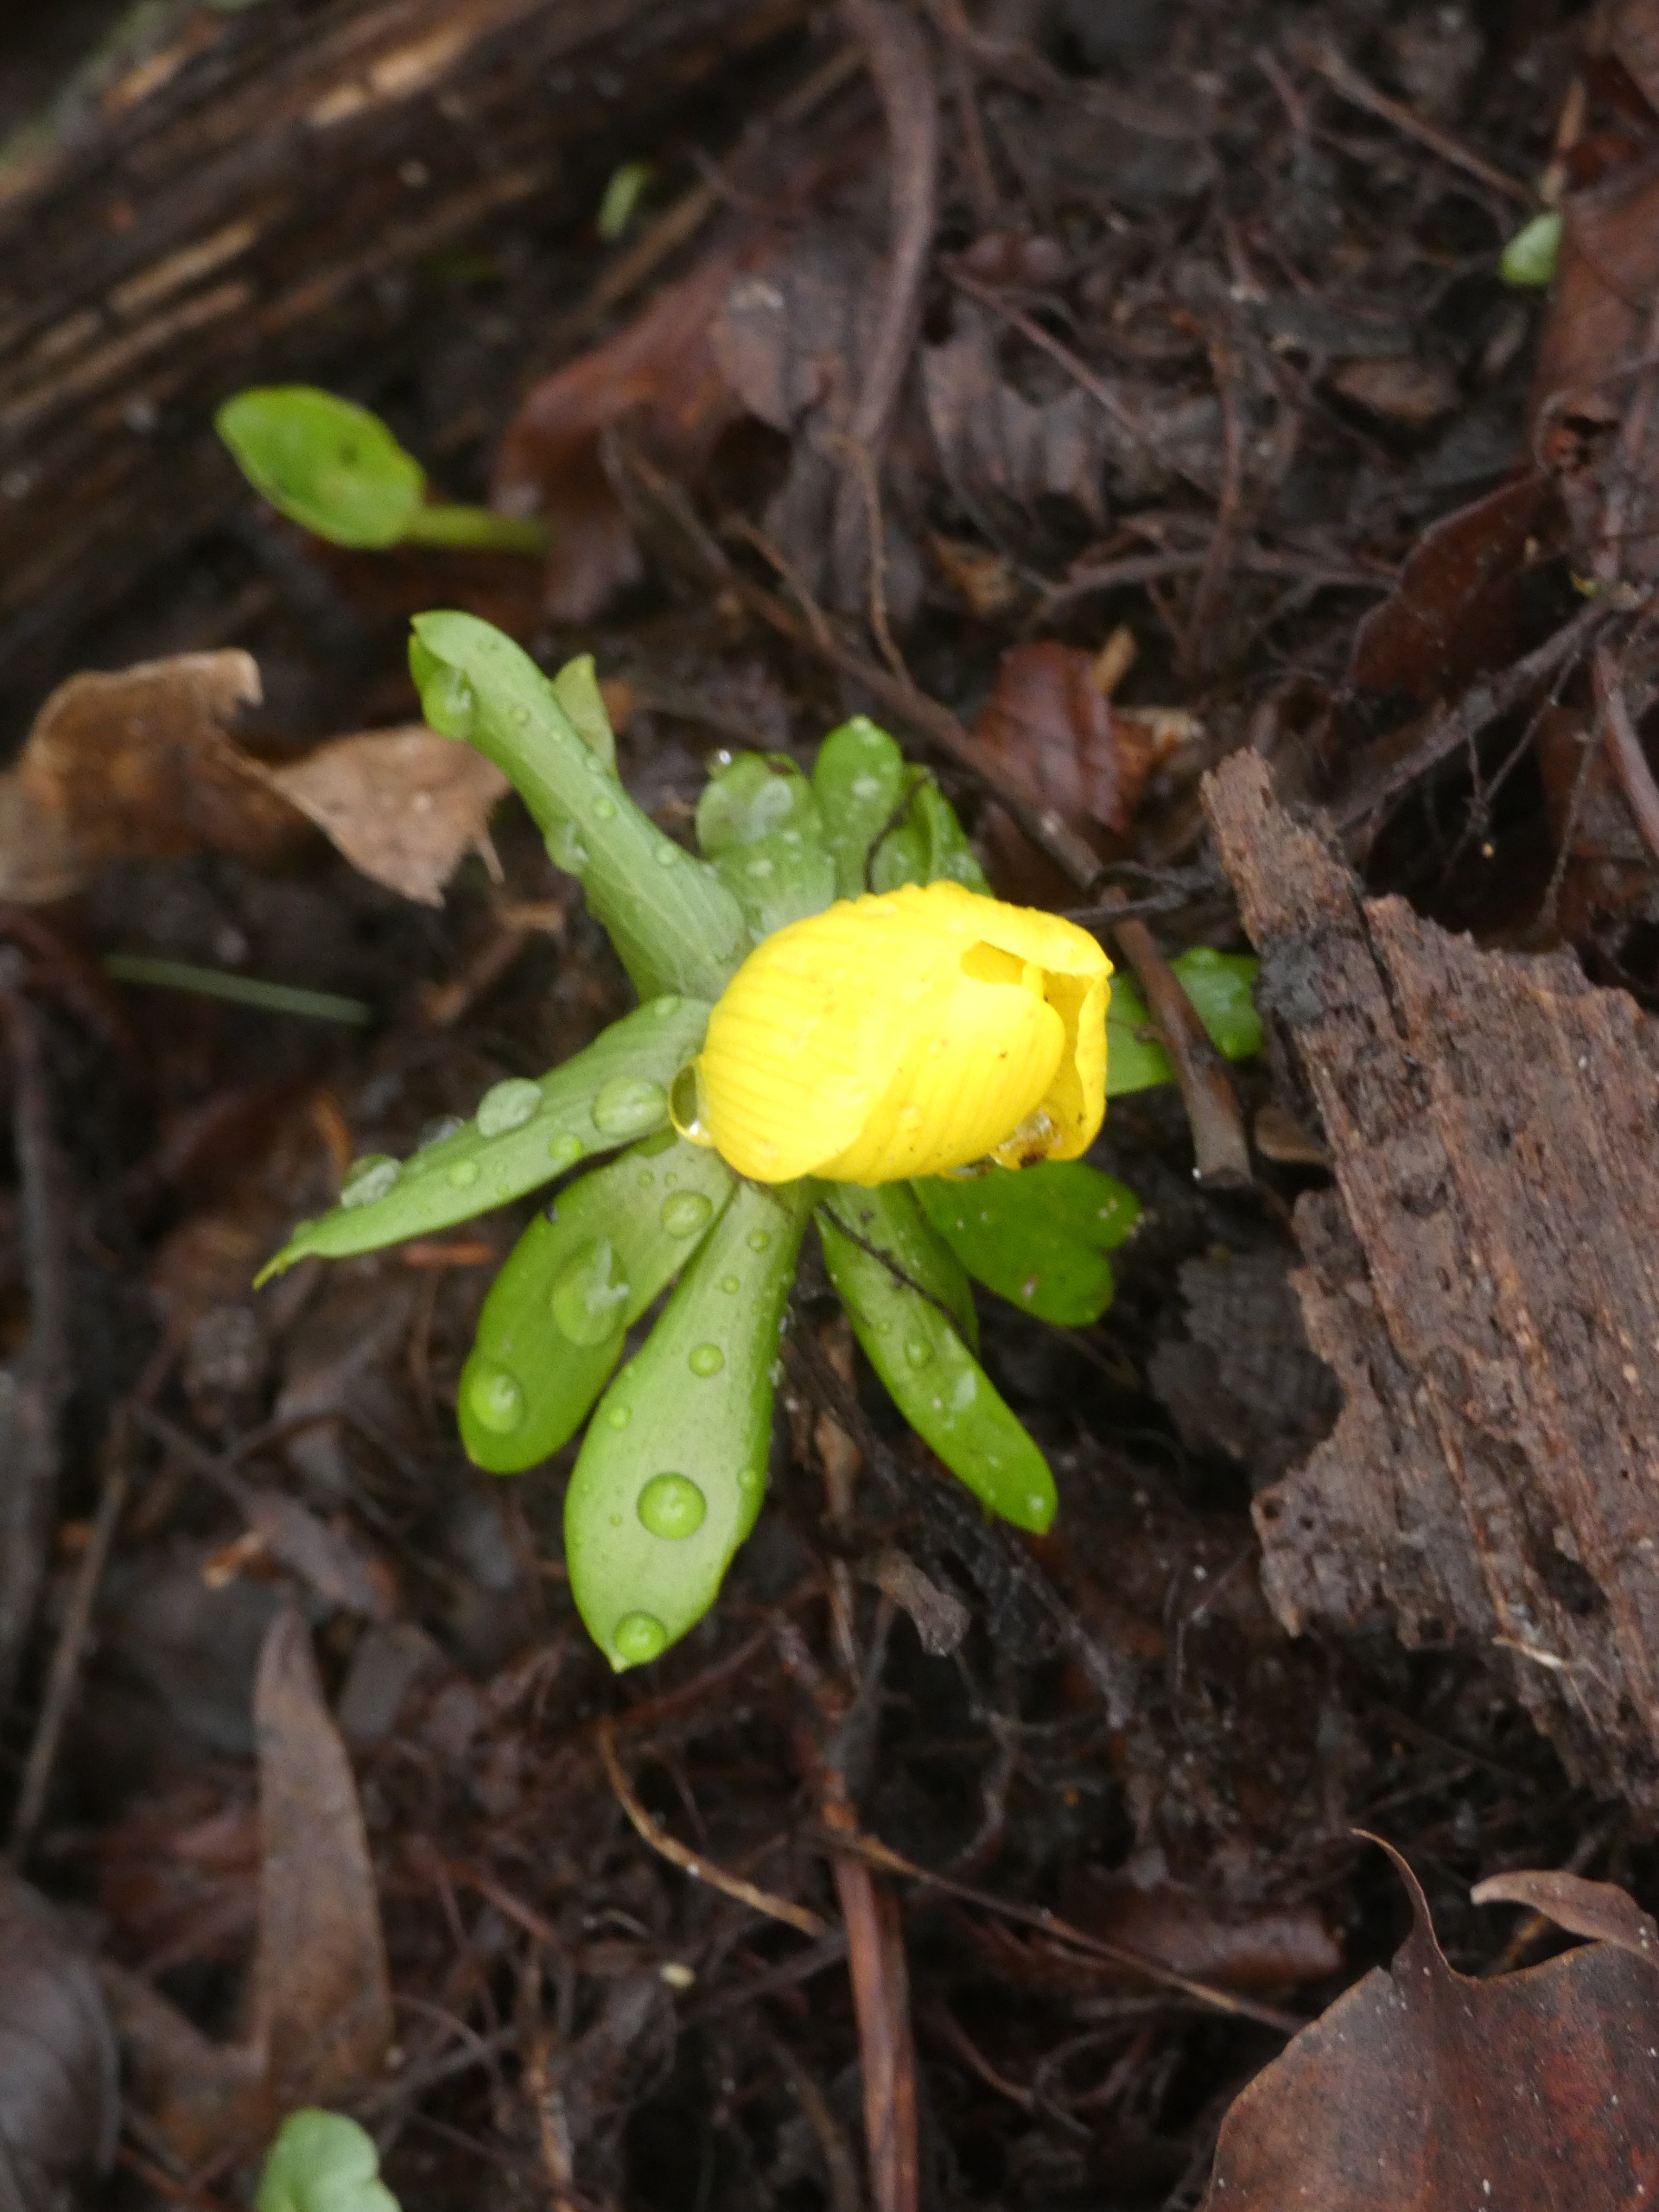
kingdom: Plantae
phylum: Tracheophyta
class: Magnoliopsida
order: Ranunculales
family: Ranunculaceae
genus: Eranthis
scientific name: Eranthis hyemalis
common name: Erantis
